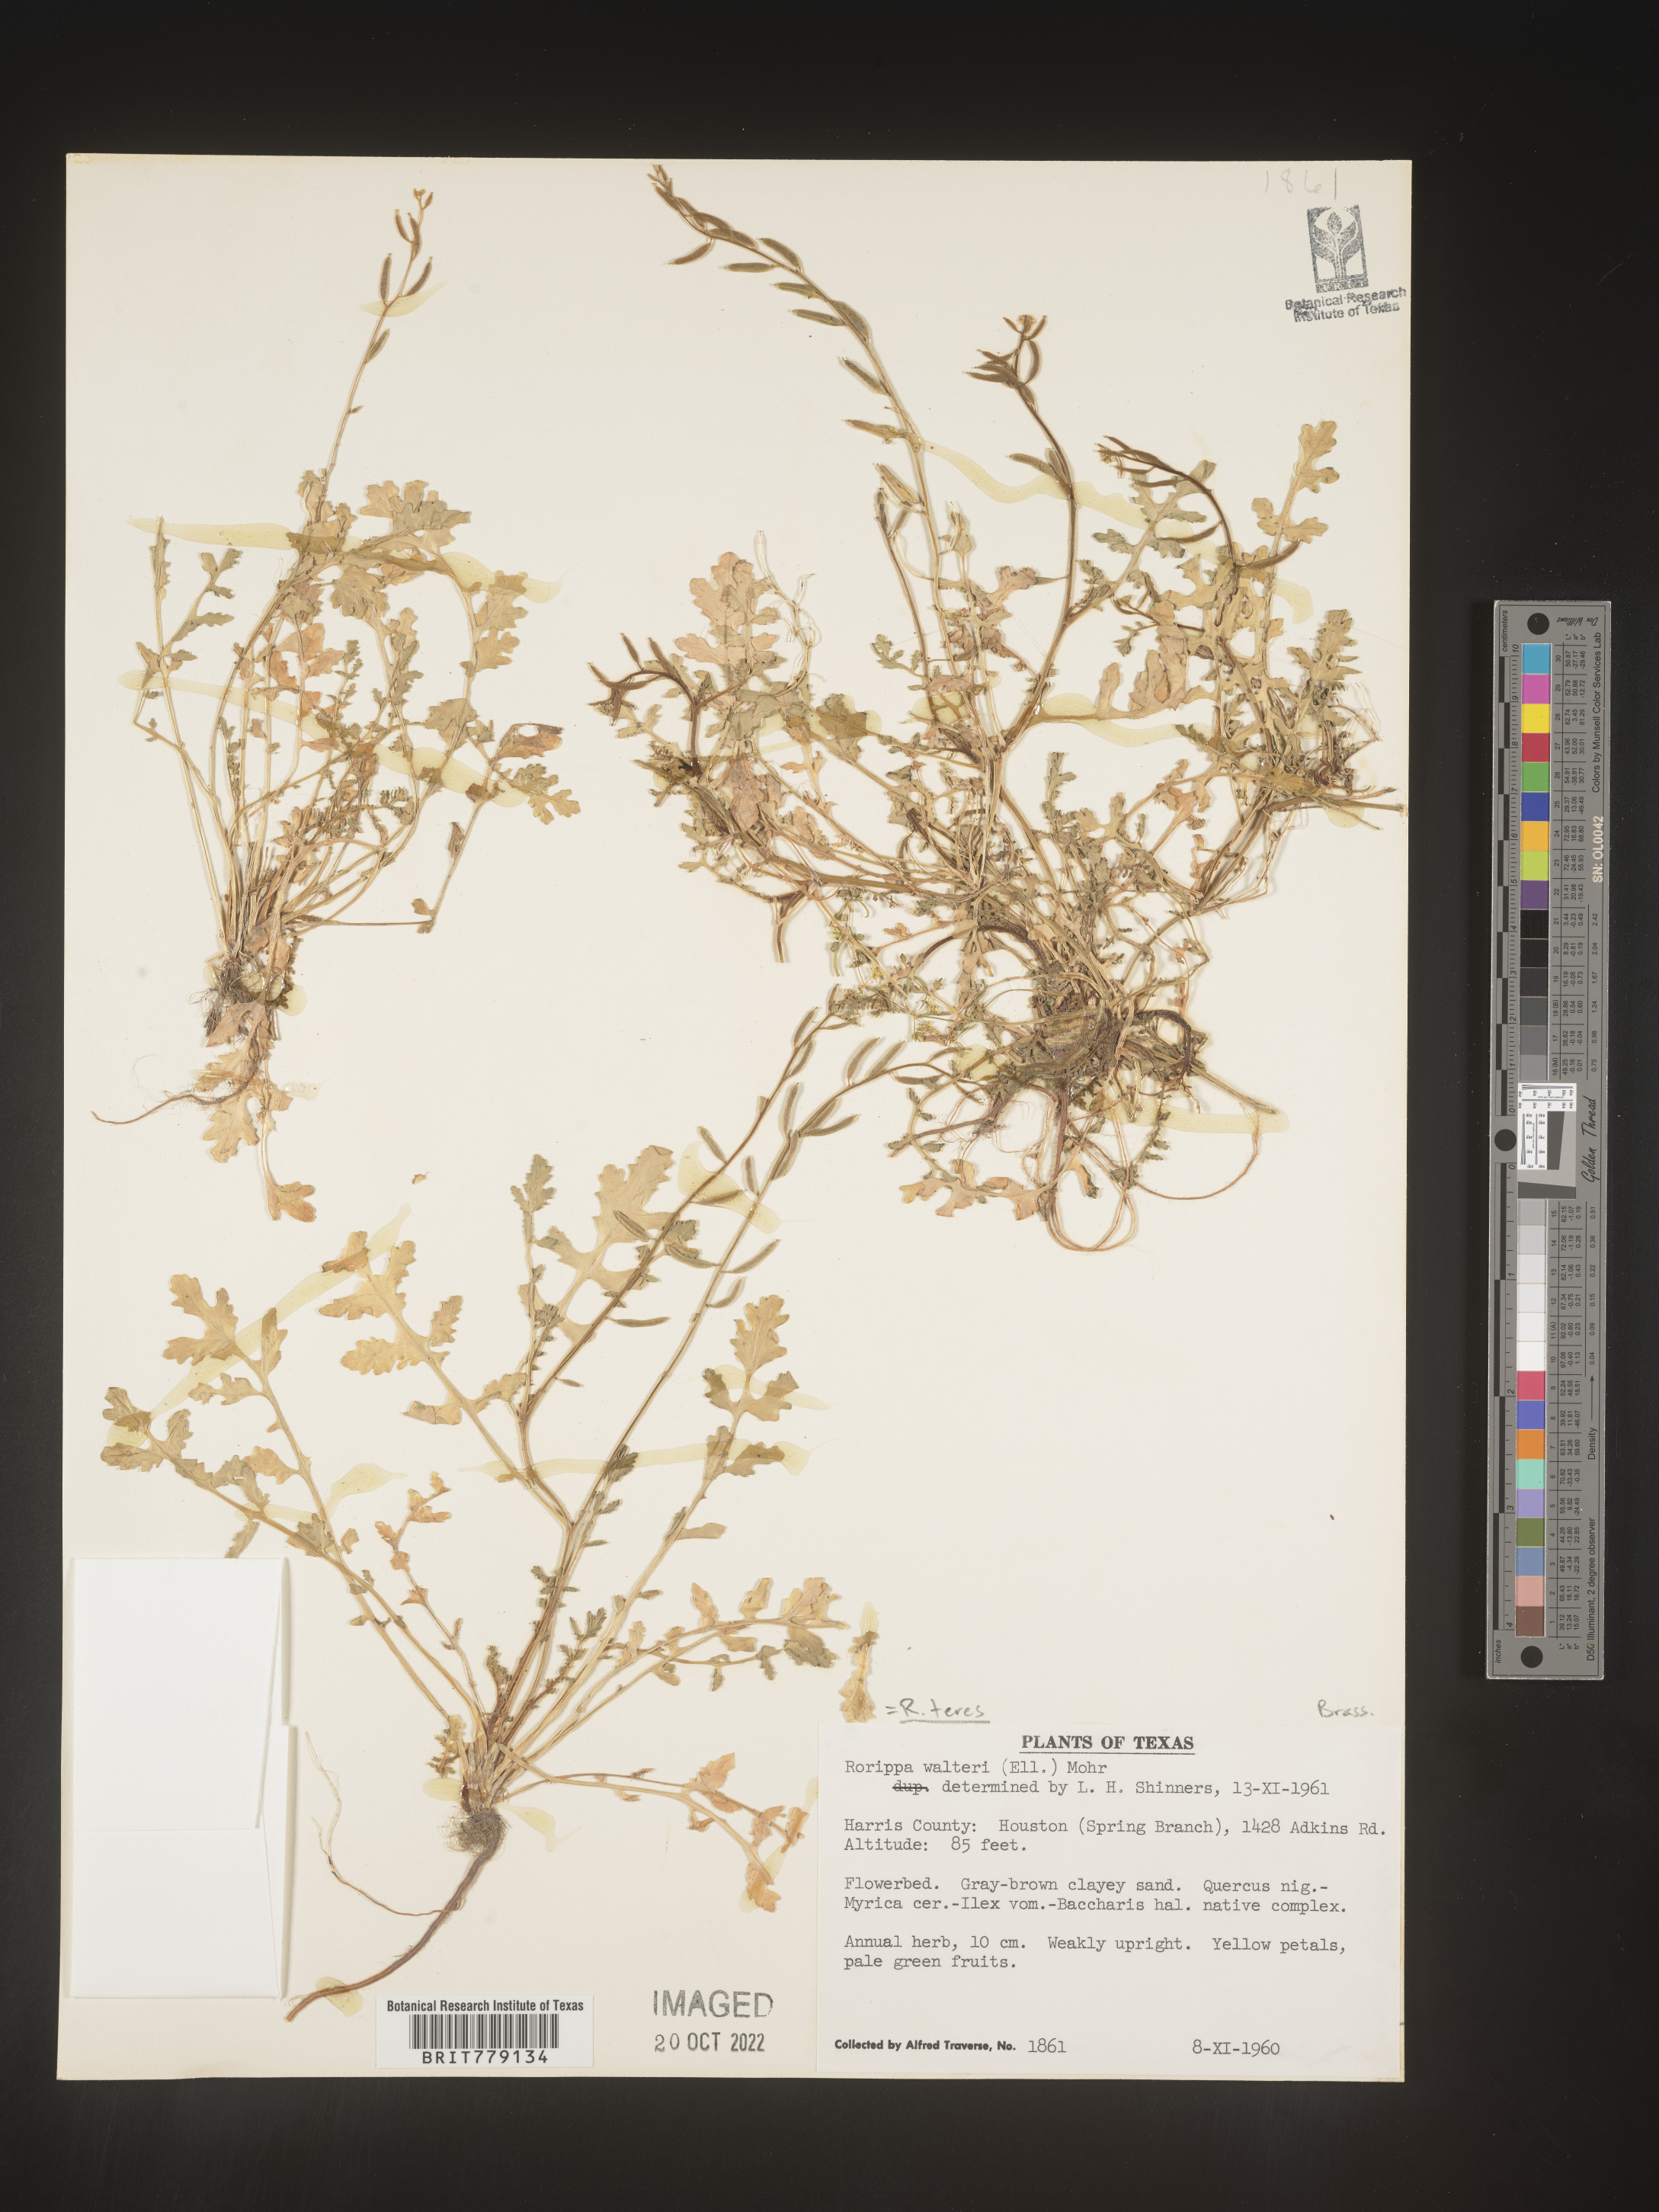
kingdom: Plantae
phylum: Tracheophyta
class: Magnoliopsida
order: Brassicales
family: Brassicaceae
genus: Rorippa
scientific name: Rorippa teres
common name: Southern marsh yellowcress
